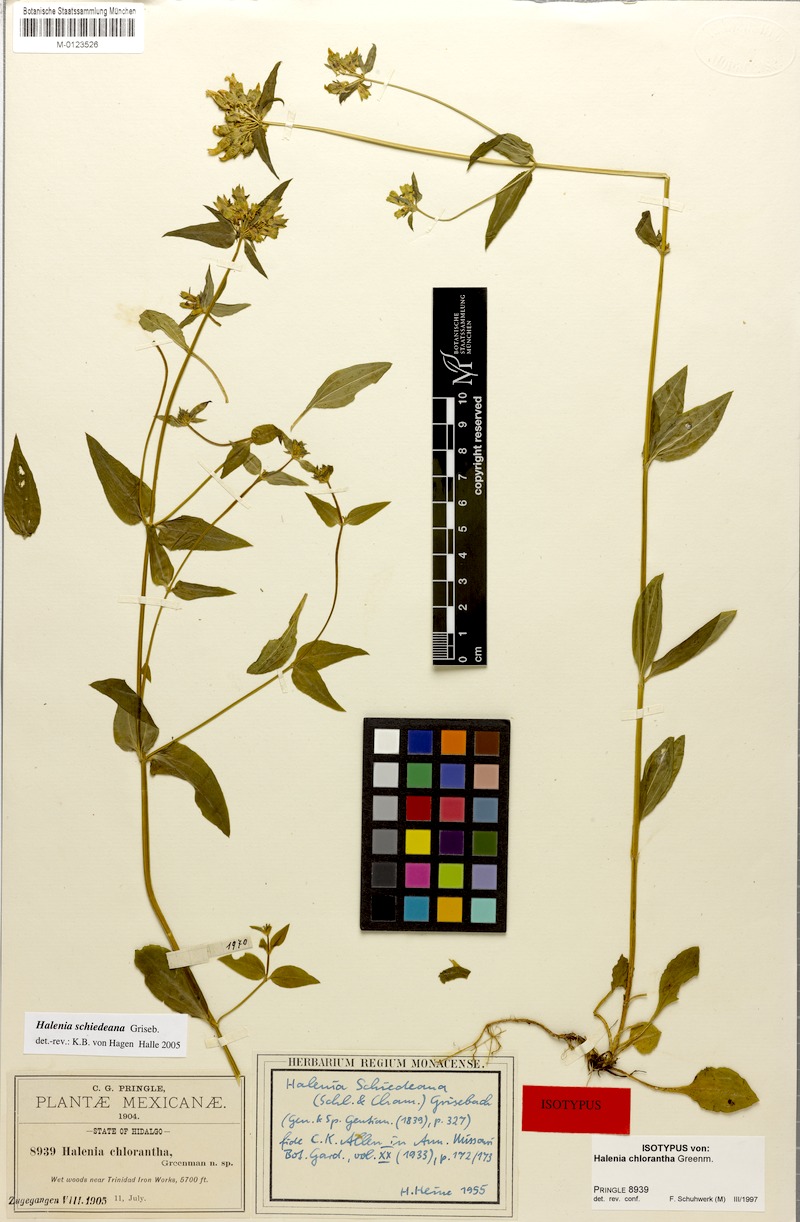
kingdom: Plantae
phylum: Tracheophyta
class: Magnoliopsida
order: Gentianales
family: Gentianaceae
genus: Halenia
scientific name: Halenia schiedeana
